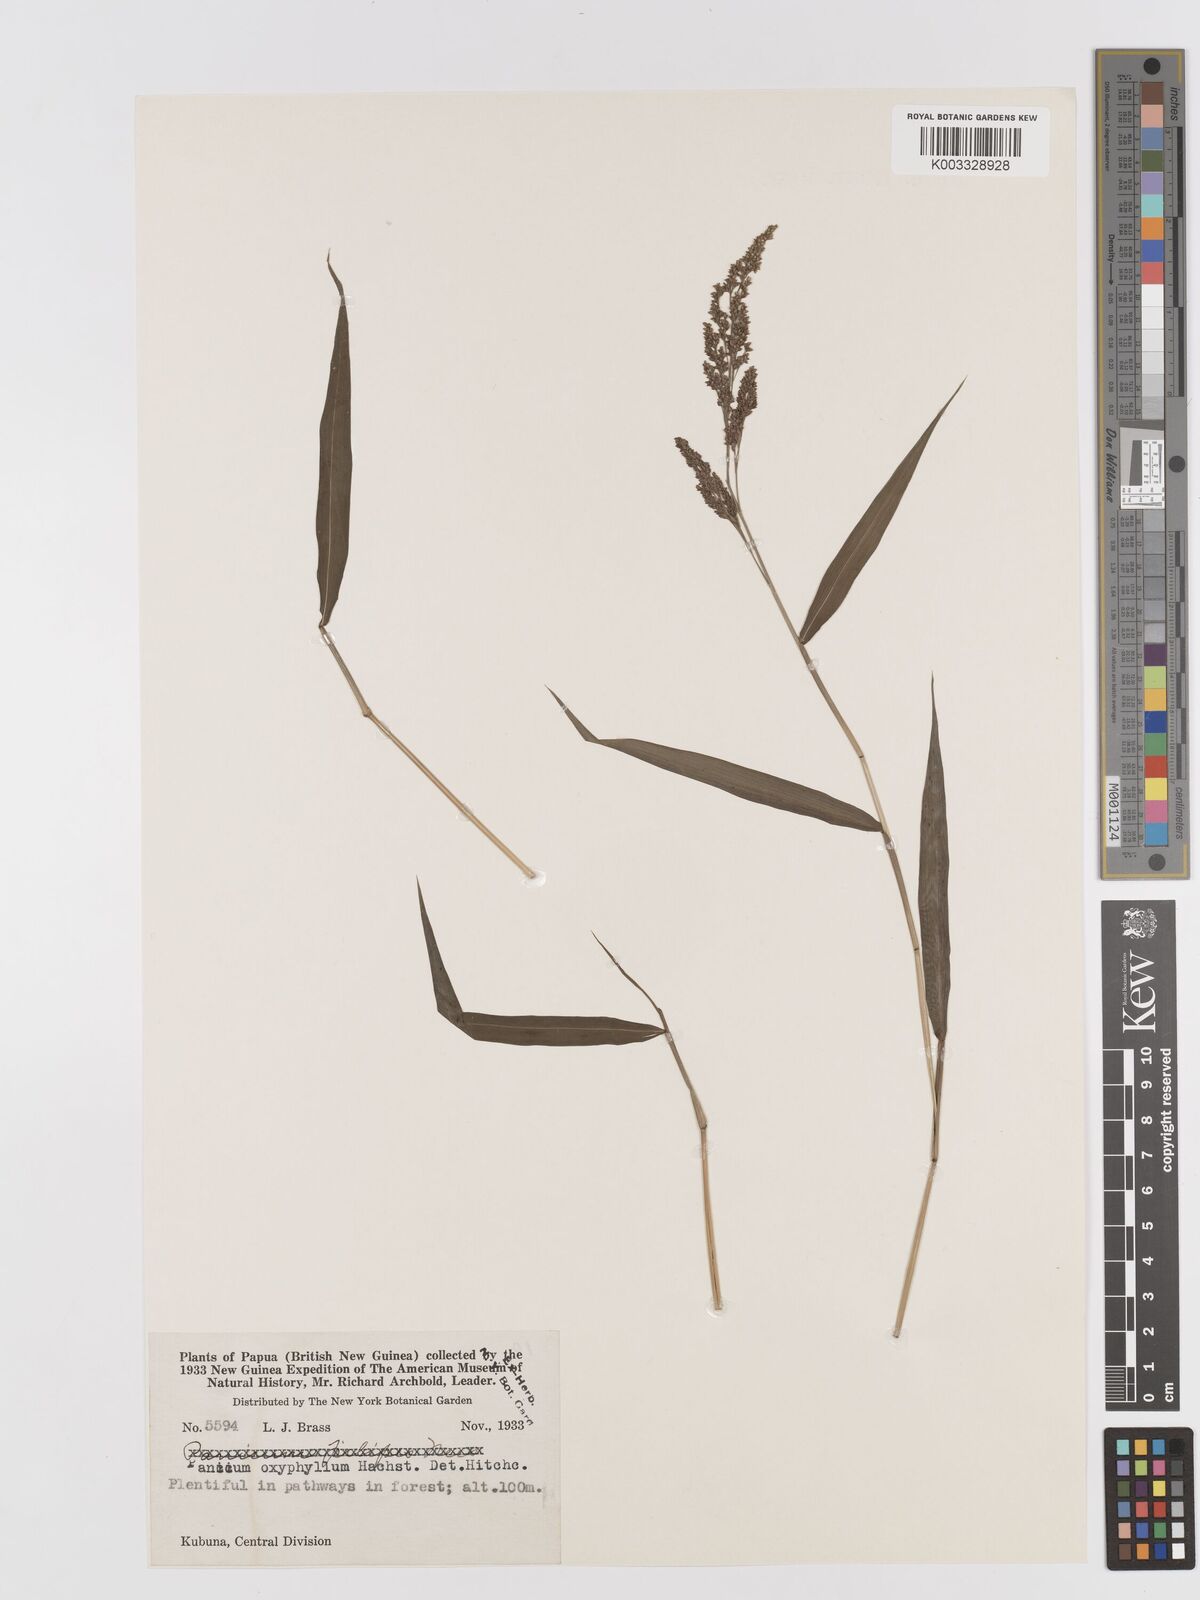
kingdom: Plantae
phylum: Tracheophyta
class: Liliopsida
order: Poales
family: Poaceae
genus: Cyrtococcum
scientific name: Cyrtococcum oxyphyllum
